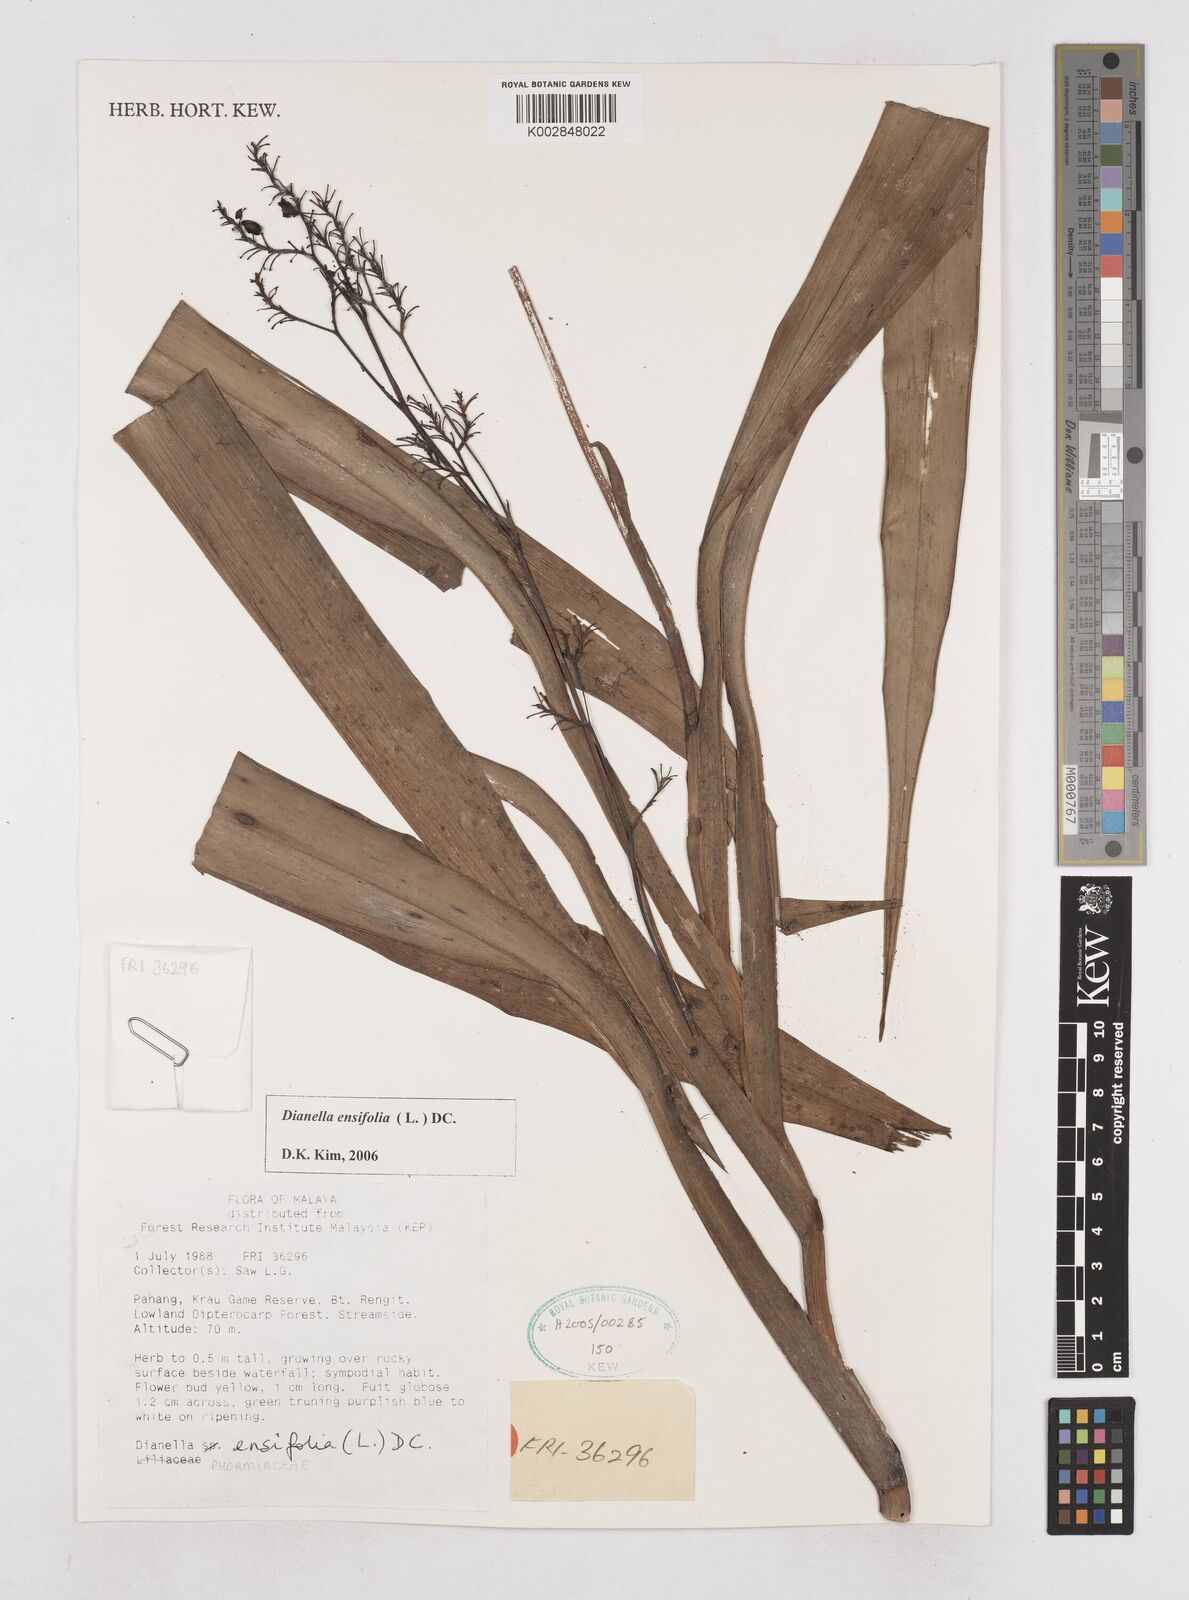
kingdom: Plantae
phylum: Tracheophyta
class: Liliopsida
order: Asparagales
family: Asphodelaceae
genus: Dianella
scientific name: Dianella ensifolia
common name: New zealand lilyplant
